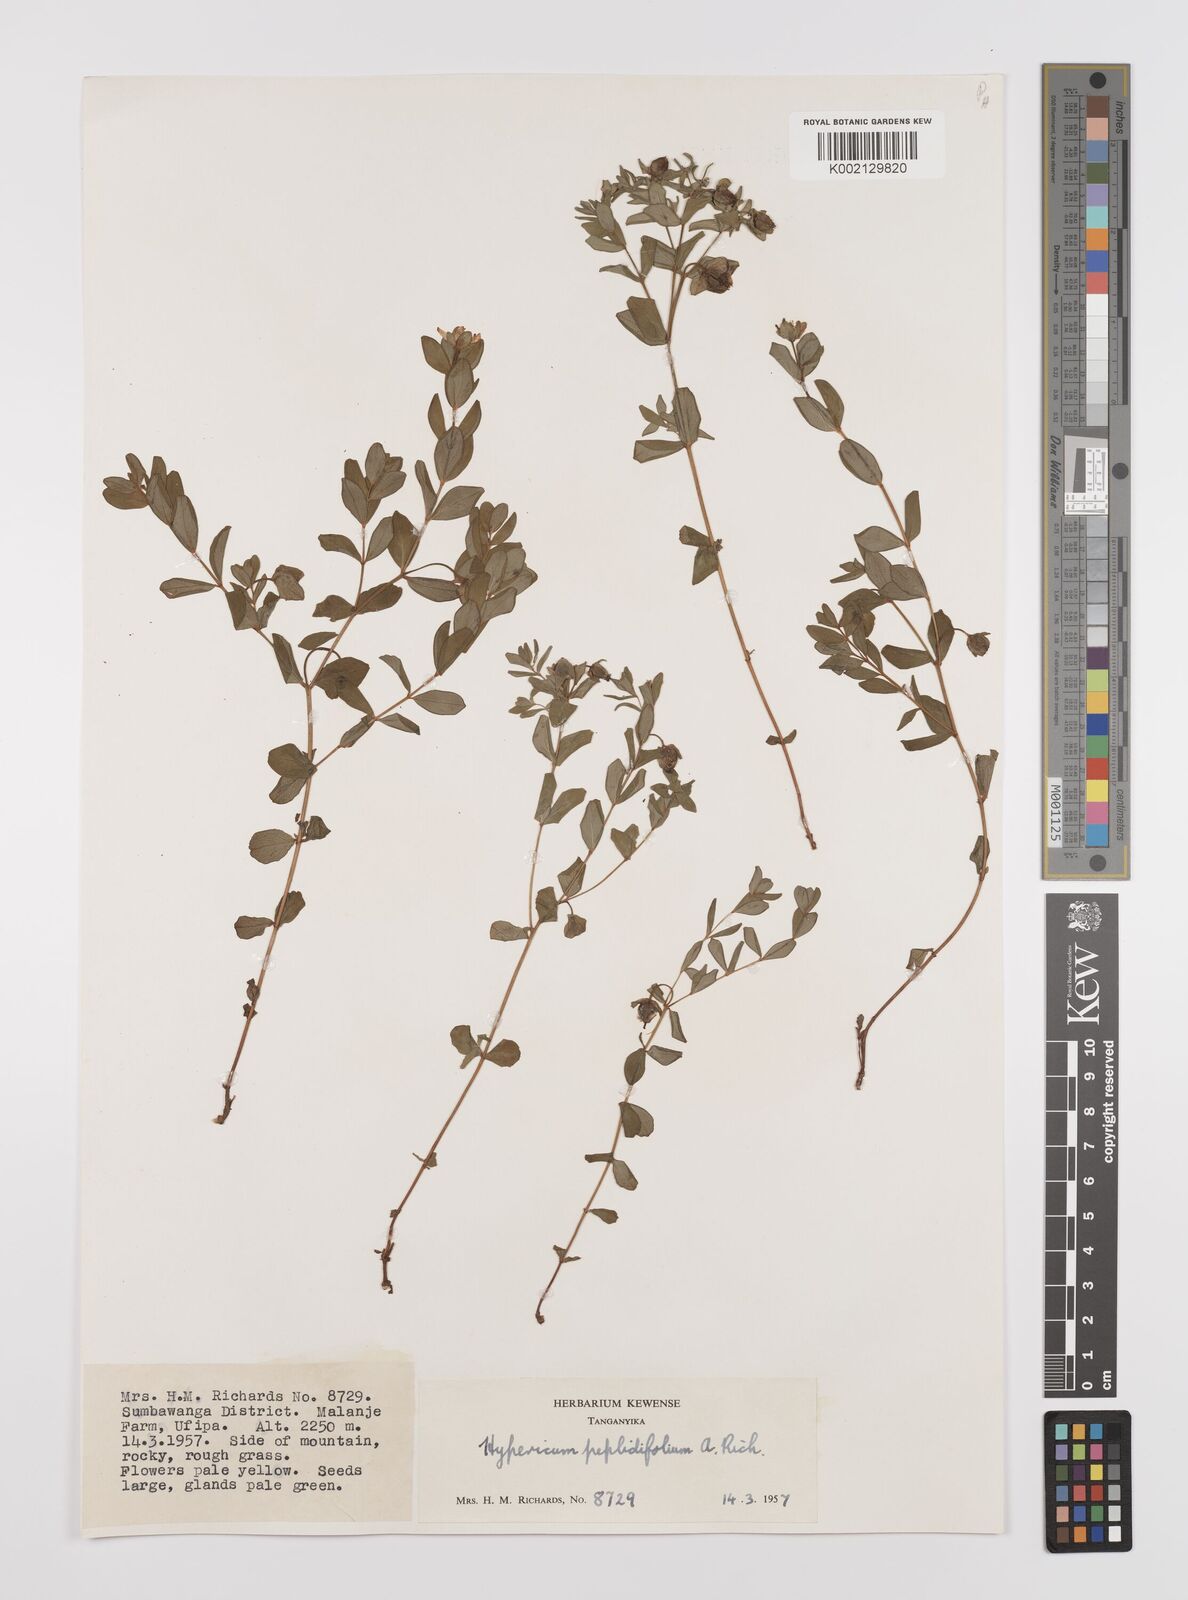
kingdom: Plantae
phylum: Tracheophyta
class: Magnoliopsida
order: Malpighiales
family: Hypericaceae
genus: Hypericum
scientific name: Hypericum peplidifolium
